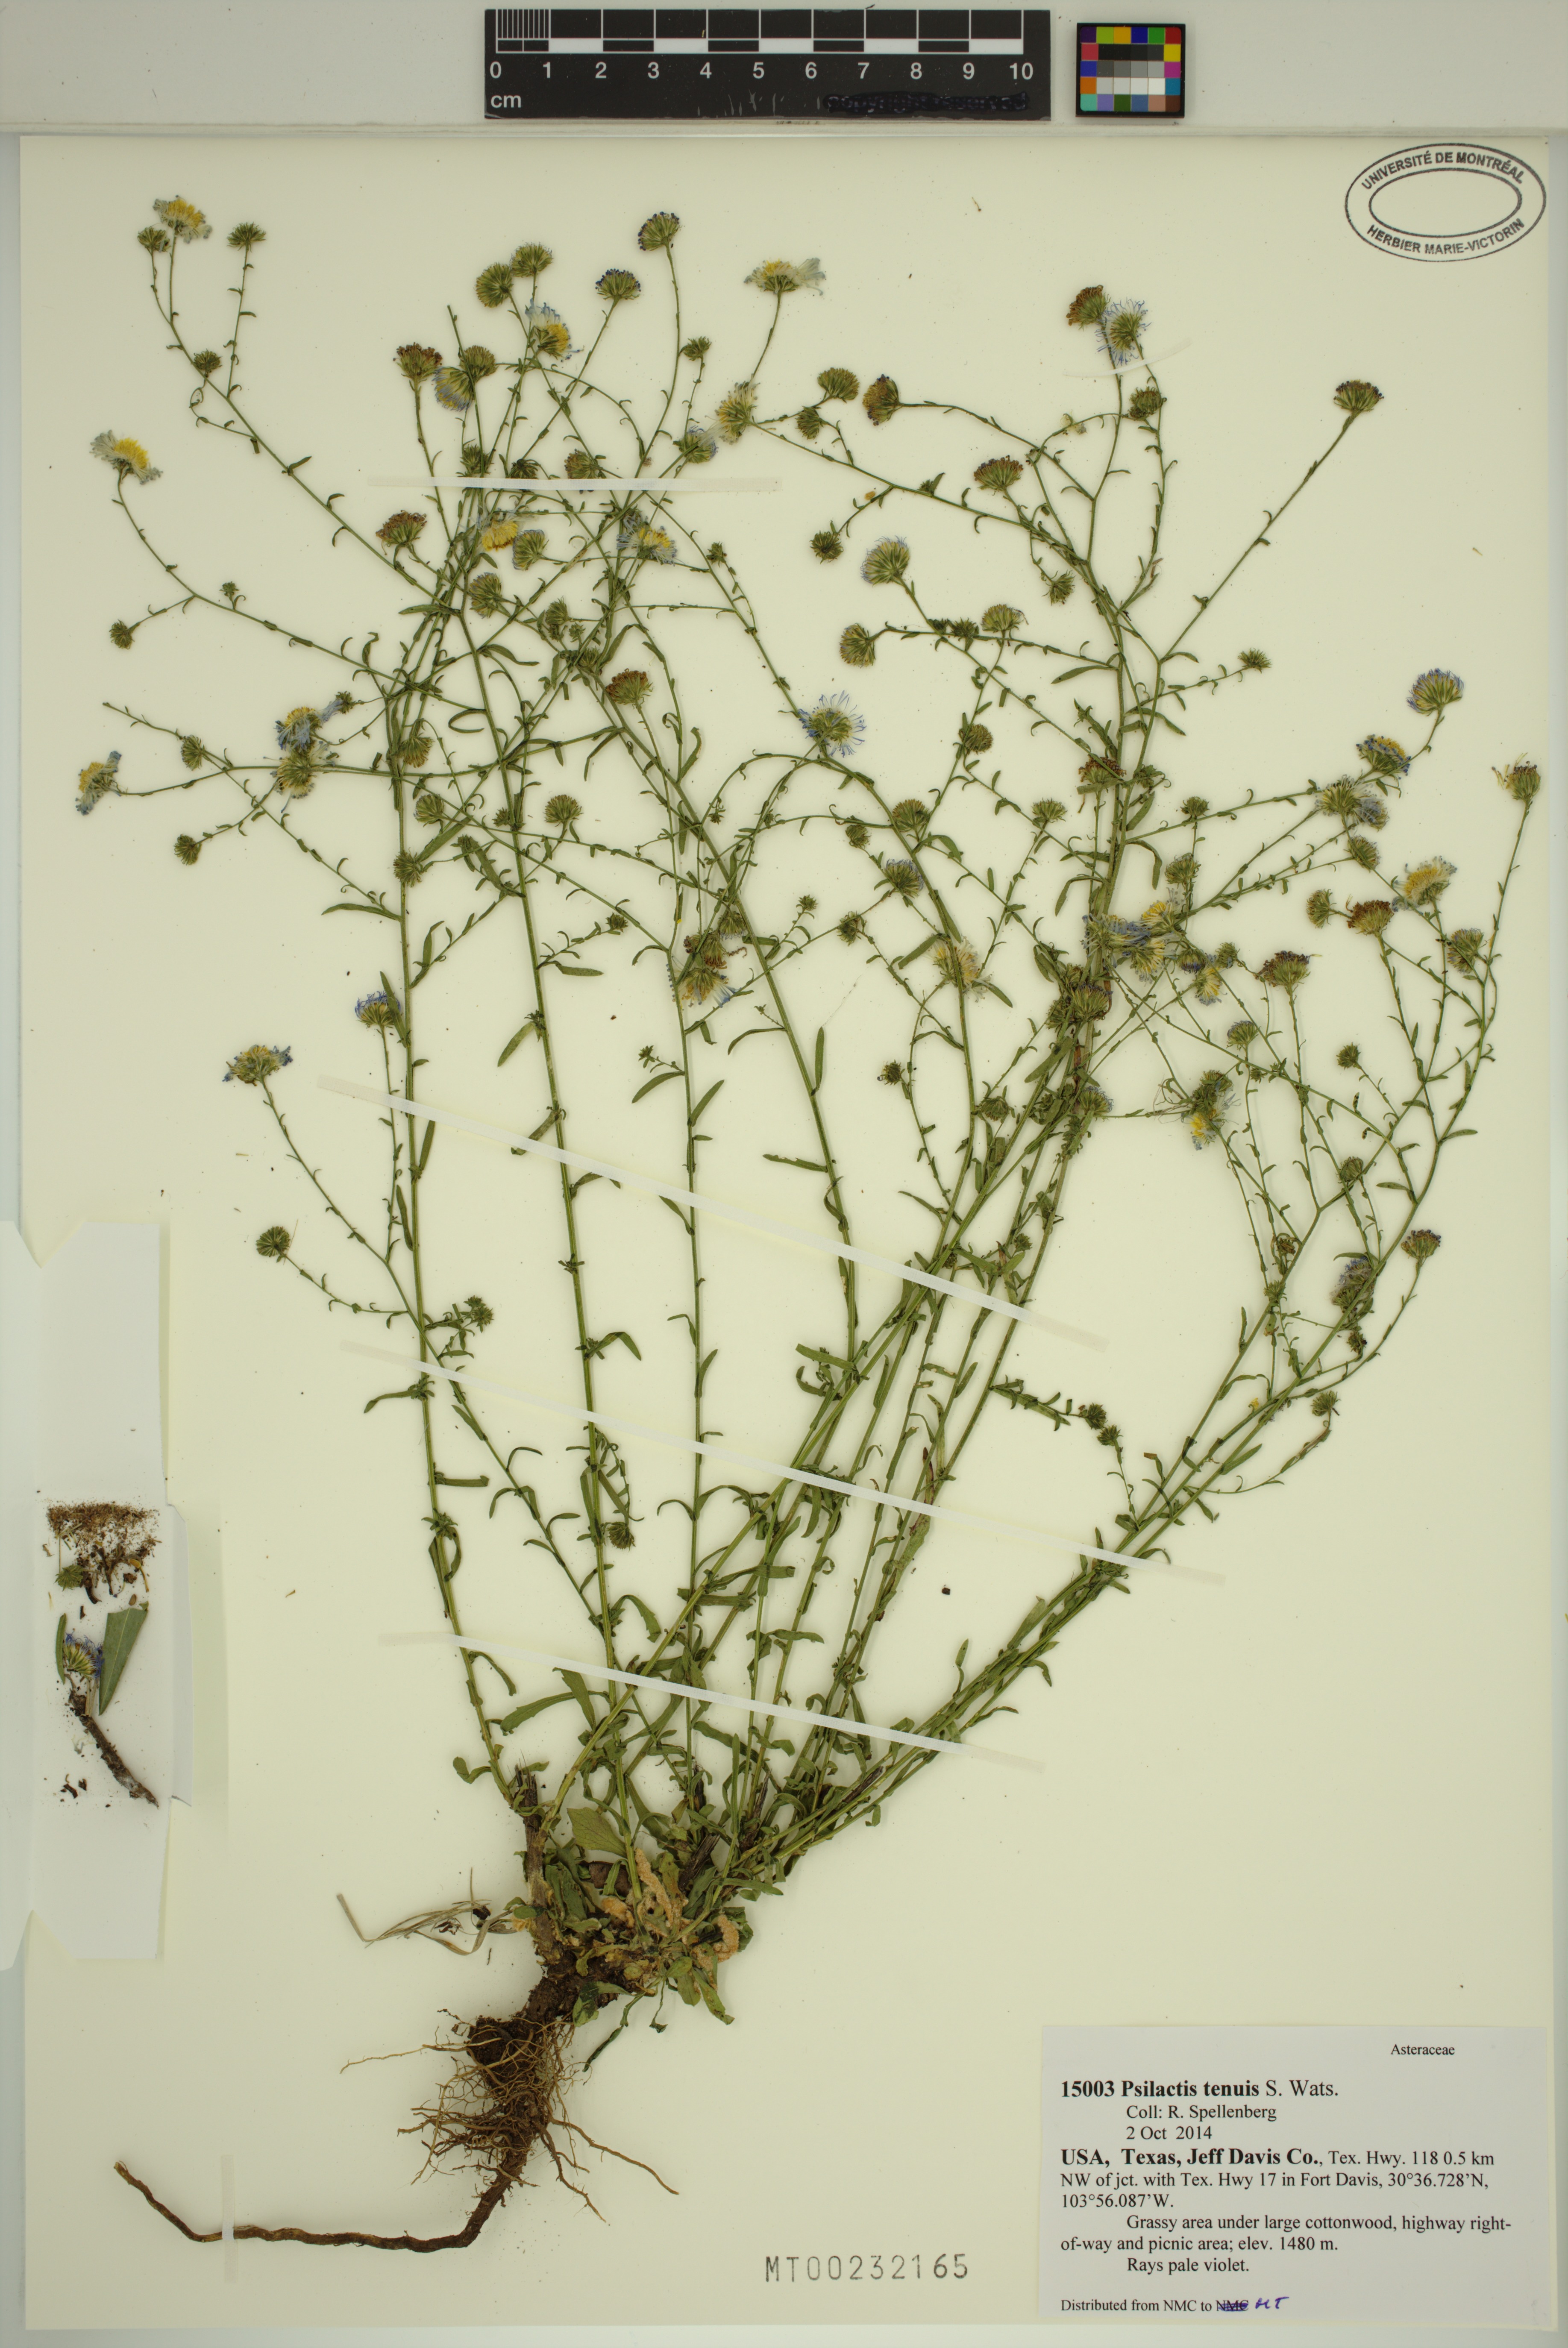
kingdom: Plantae
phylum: Tracheophyta
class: Magnoliopsida
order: Asterales
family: Asteraceae
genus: Psilactis
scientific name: Psilactis tenuis
